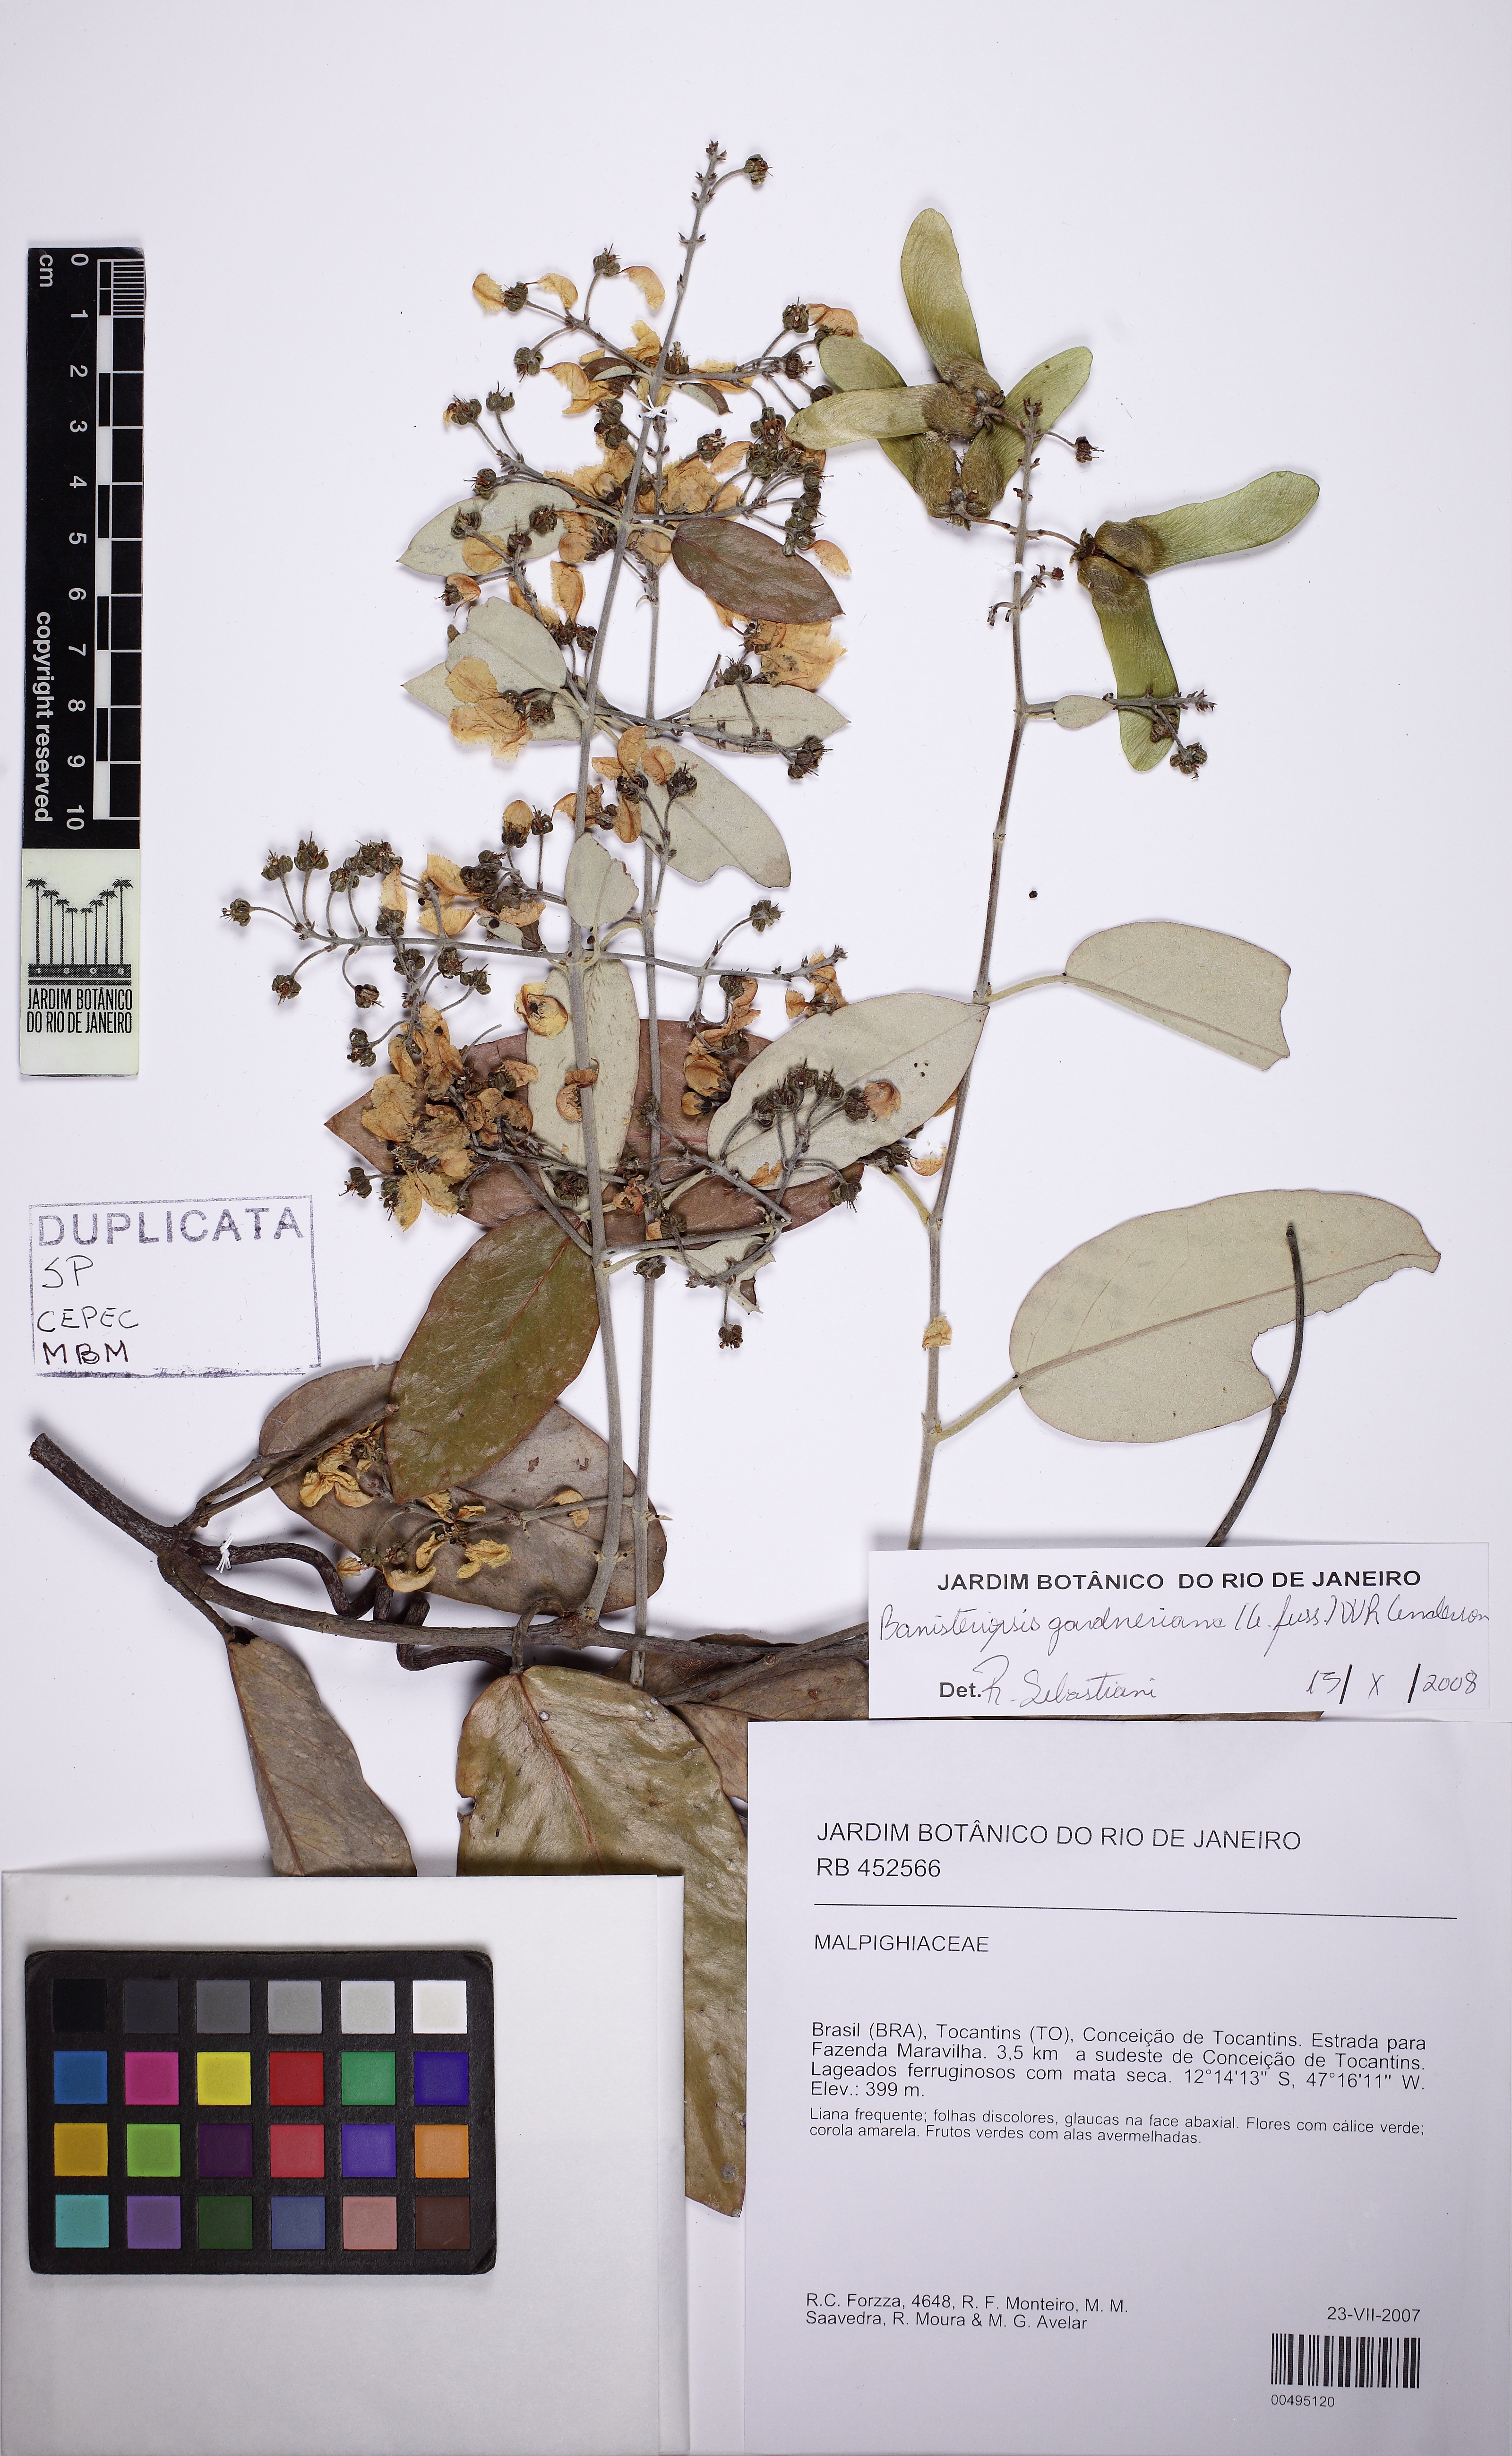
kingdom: Plantae
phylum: Tracheophyta
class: Magnoliopsida
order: Malpighiales
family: Malpighiaceae
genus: Banisteriopsis
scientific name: Banisteriopsis gardneriana
